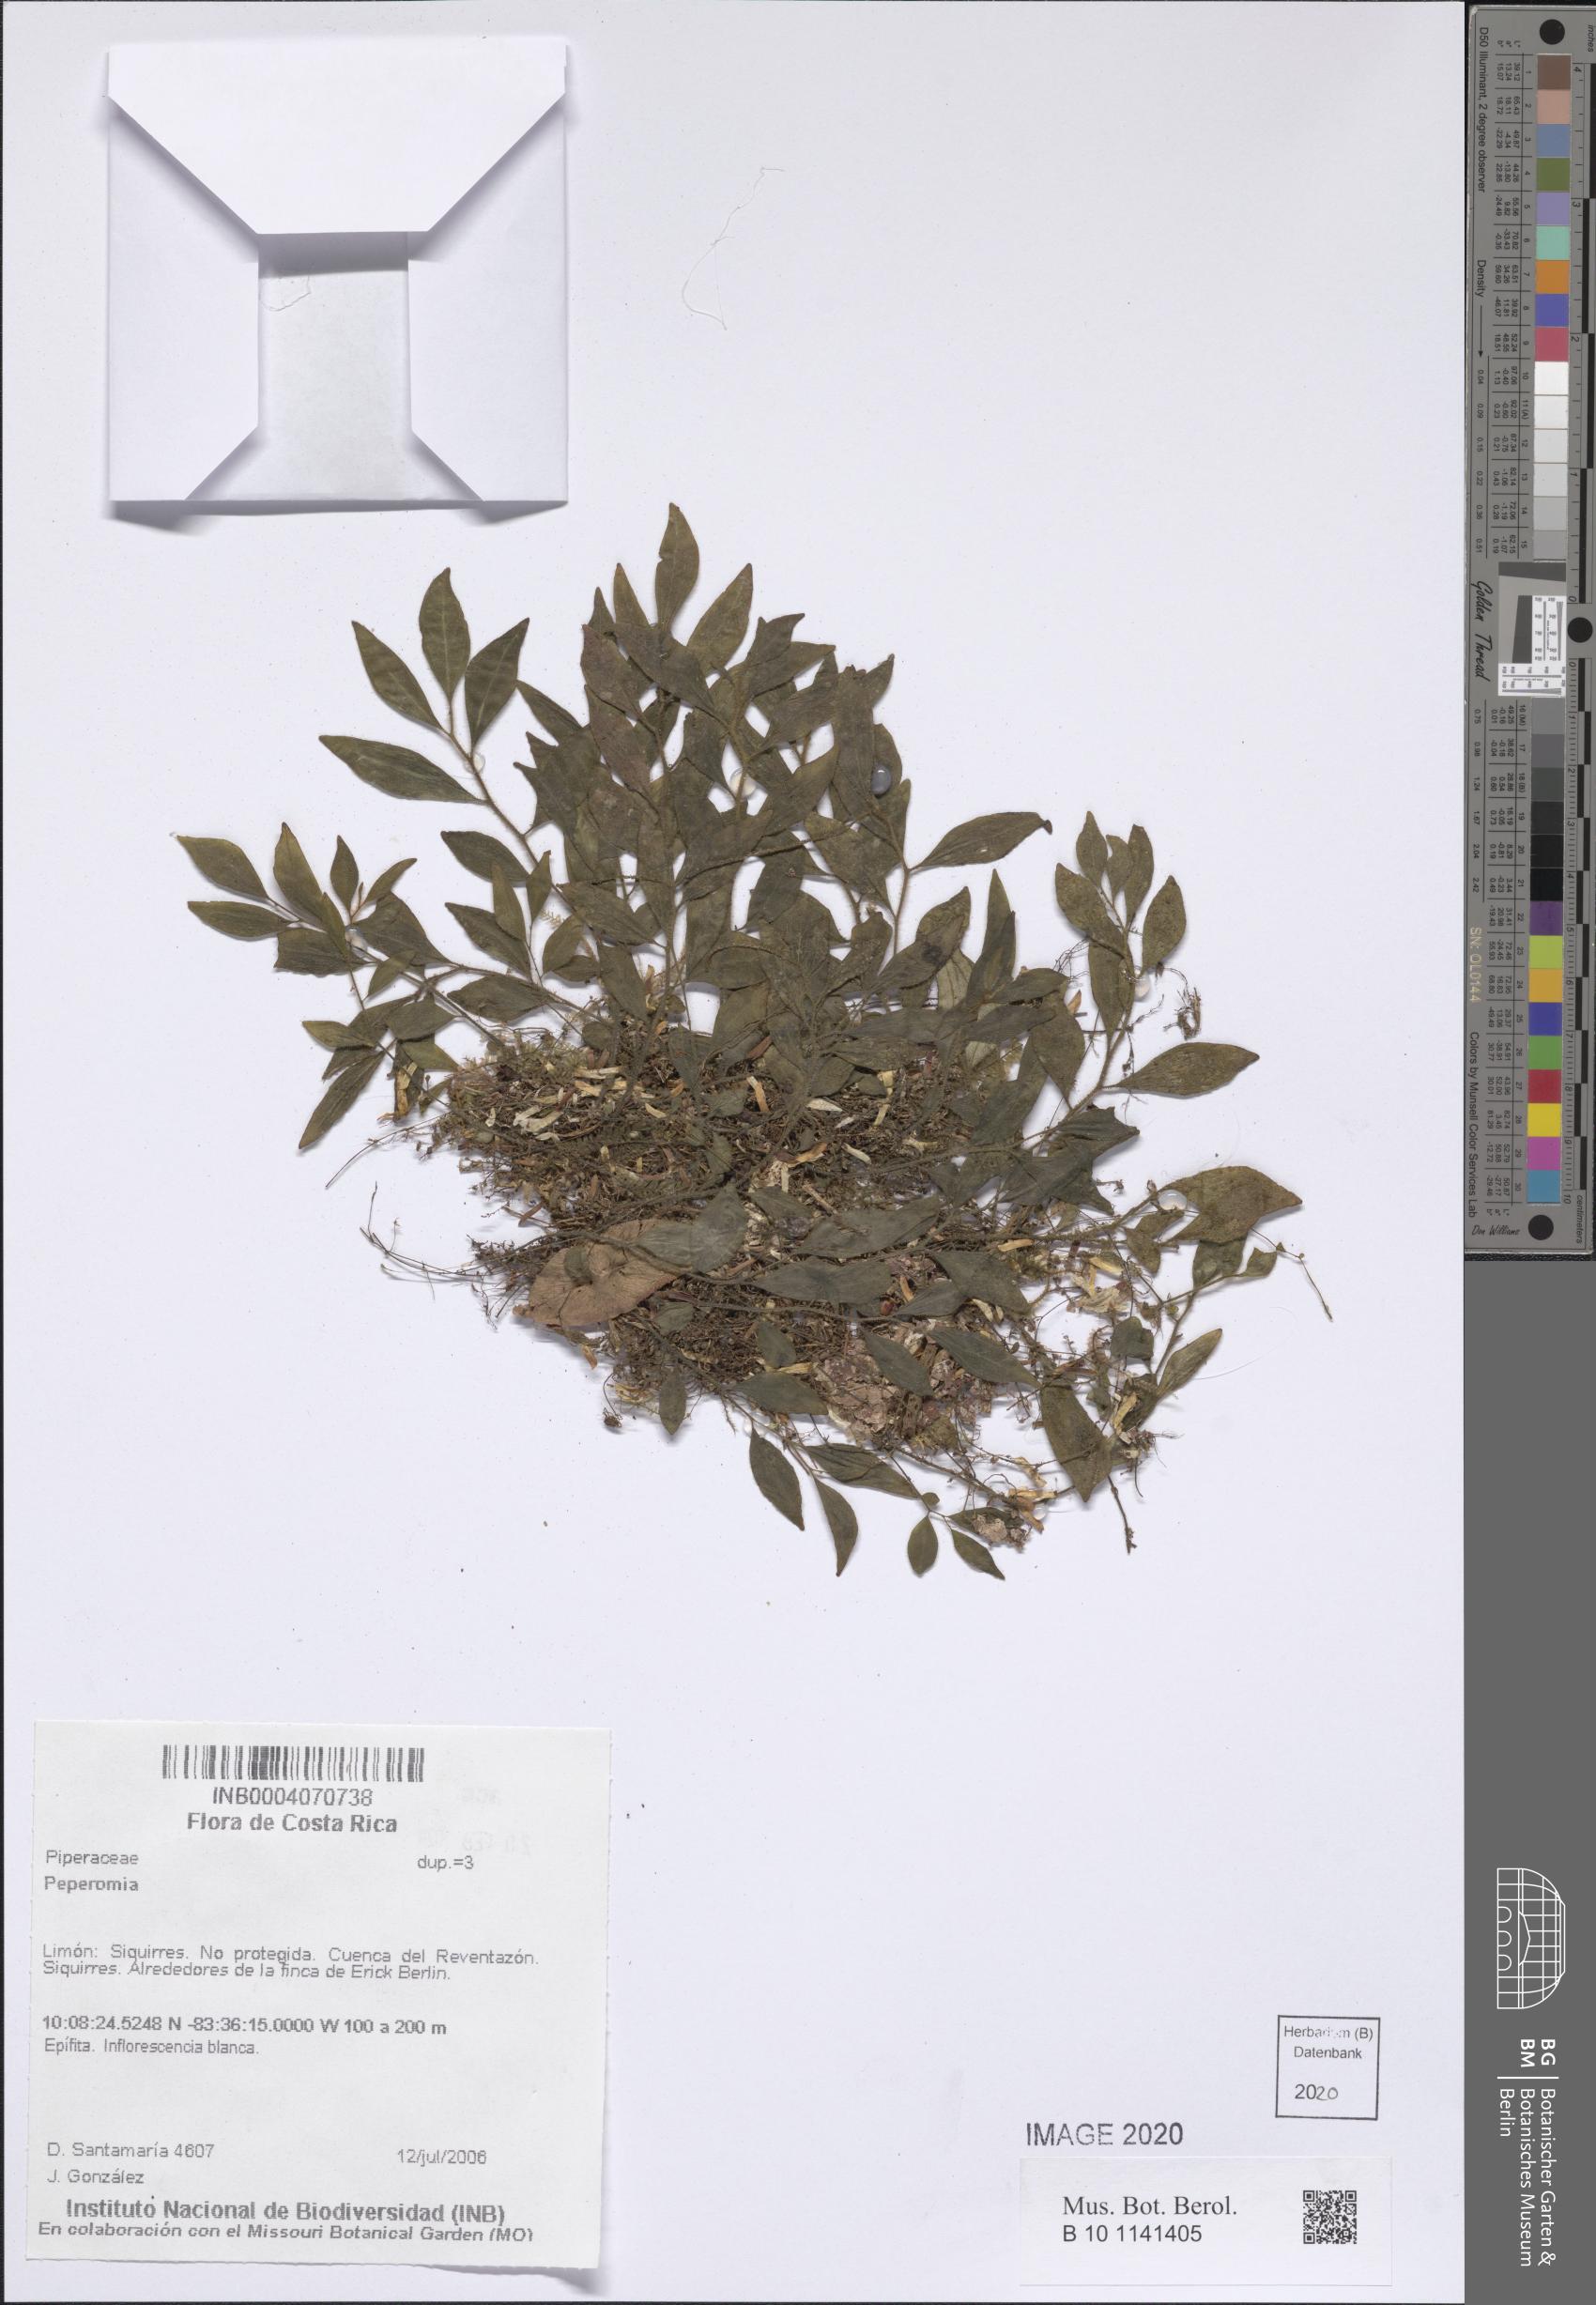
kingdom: Plantae
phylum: Tracheophyta
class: Magnoliopsida
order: Piperales
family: Piperaceae
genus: Peperomia
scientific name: Peperomia
